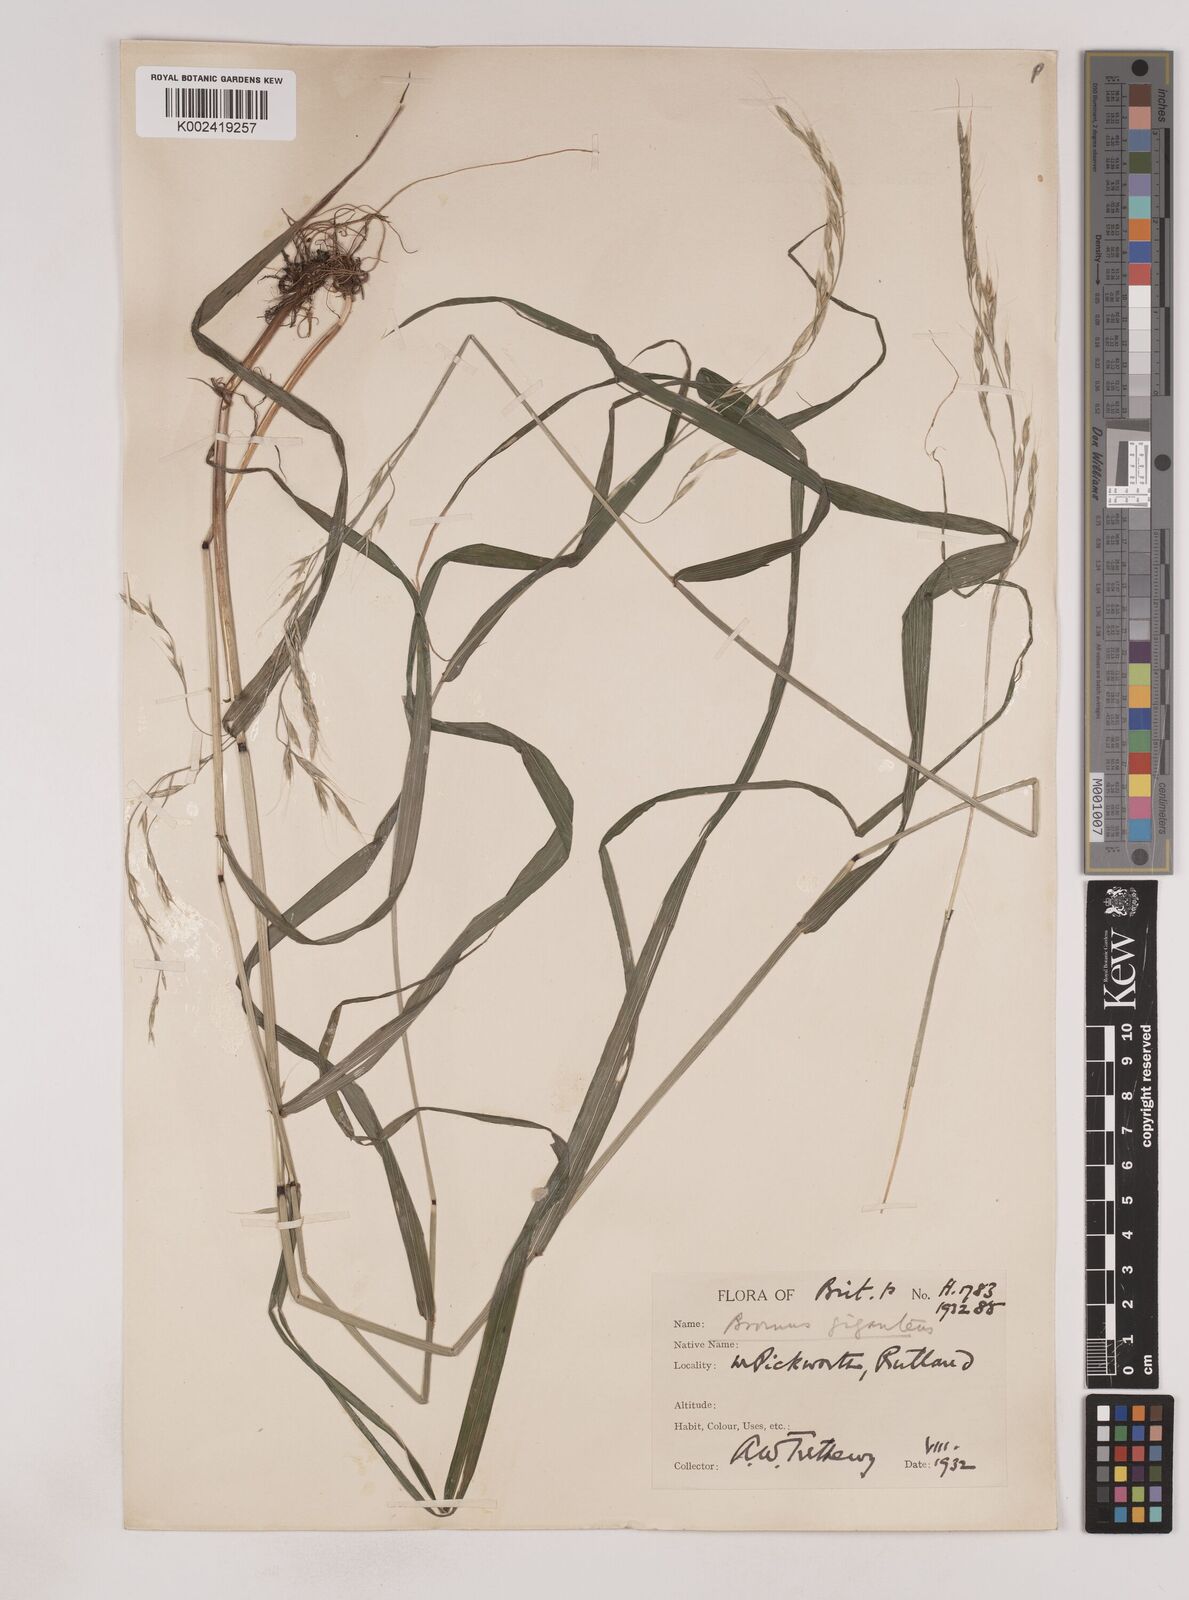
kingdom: Plantae
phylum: Tracheophyta
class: Liliopsida
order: Poales
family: Poaceae
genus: Lolium
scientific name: Lolium giganteum
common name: Giant fescue
